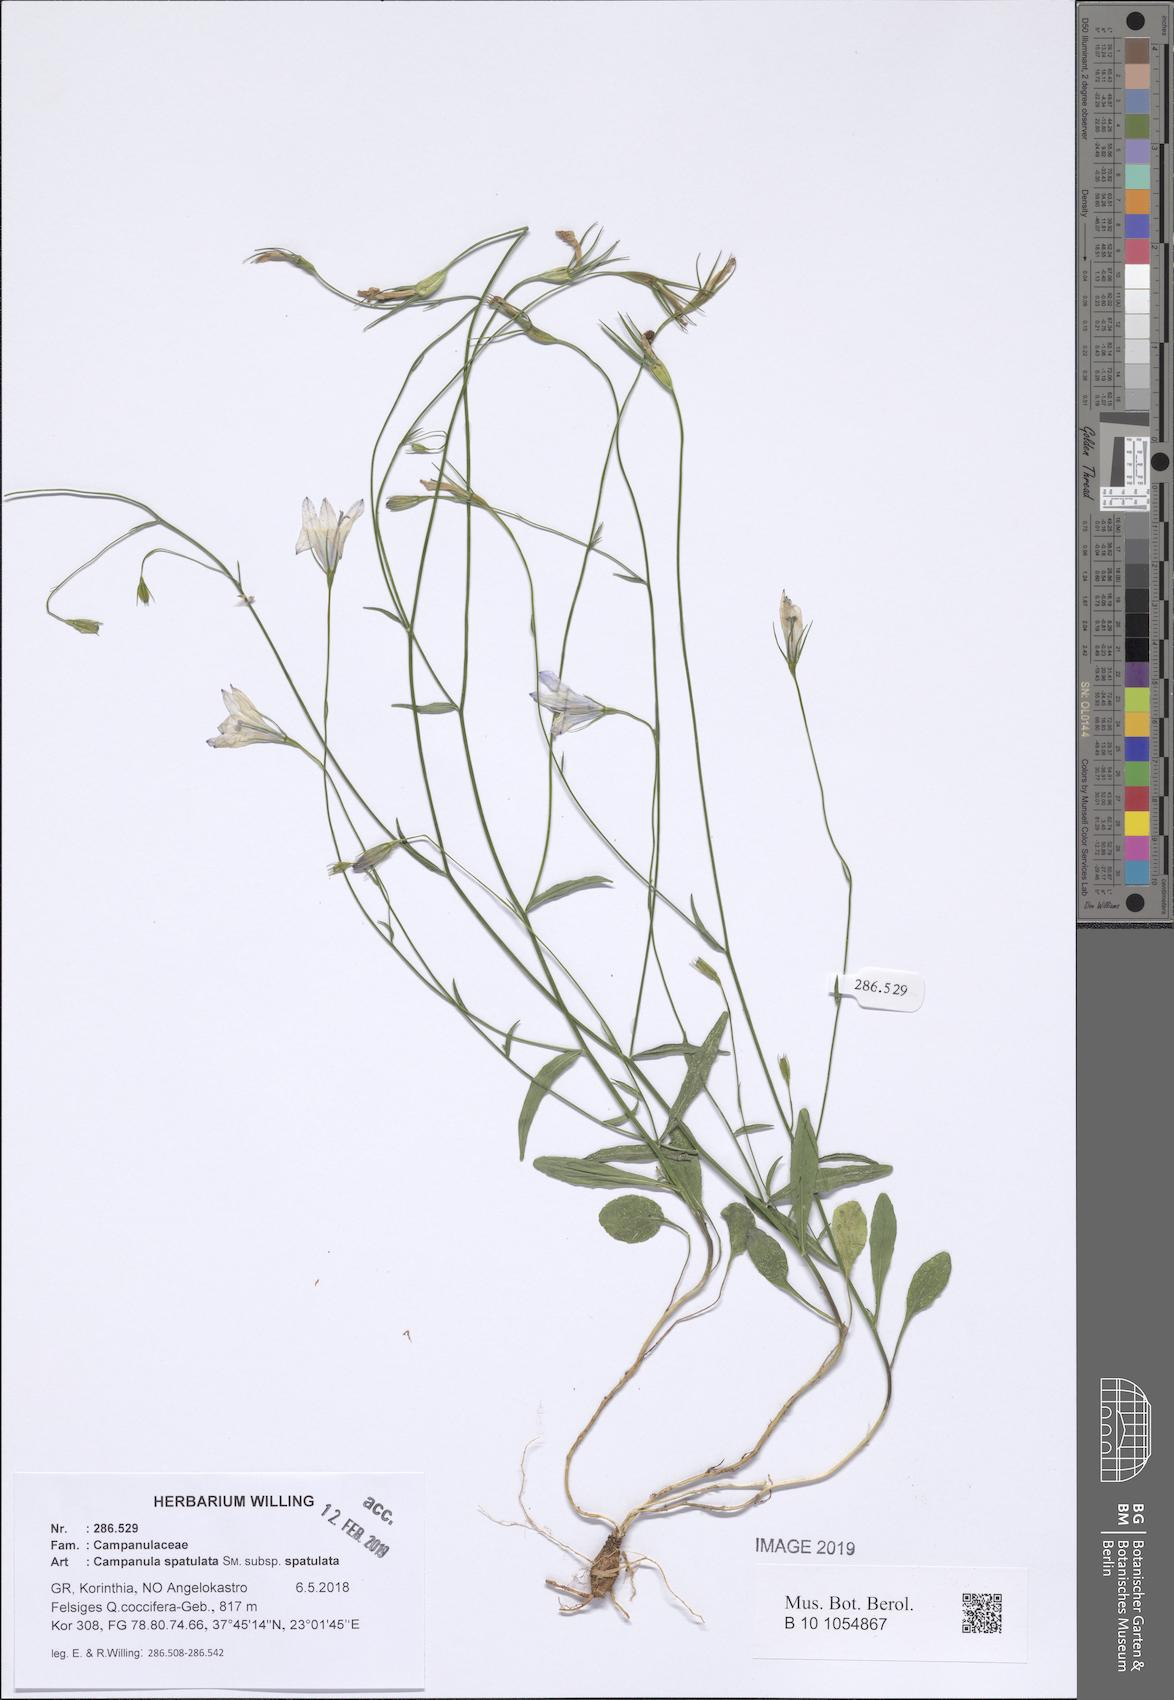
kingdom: Plantae
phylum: Tracheophyta
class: Magnoliopsida
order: Asterales
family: Campanulaceae
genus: Campanula
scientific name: Campanula spatulata
